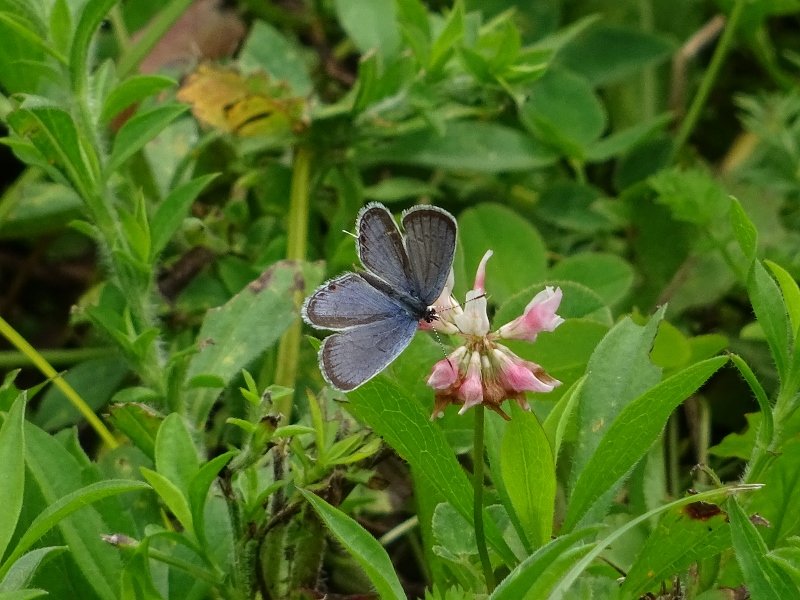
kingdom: Animalia
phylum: Arthropoda
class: Insecta
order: Lepidoptera
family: Lycaenidae
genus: Elkalyce
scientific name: Elkalyce comyntas
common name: Eastern Tailed-Blue
